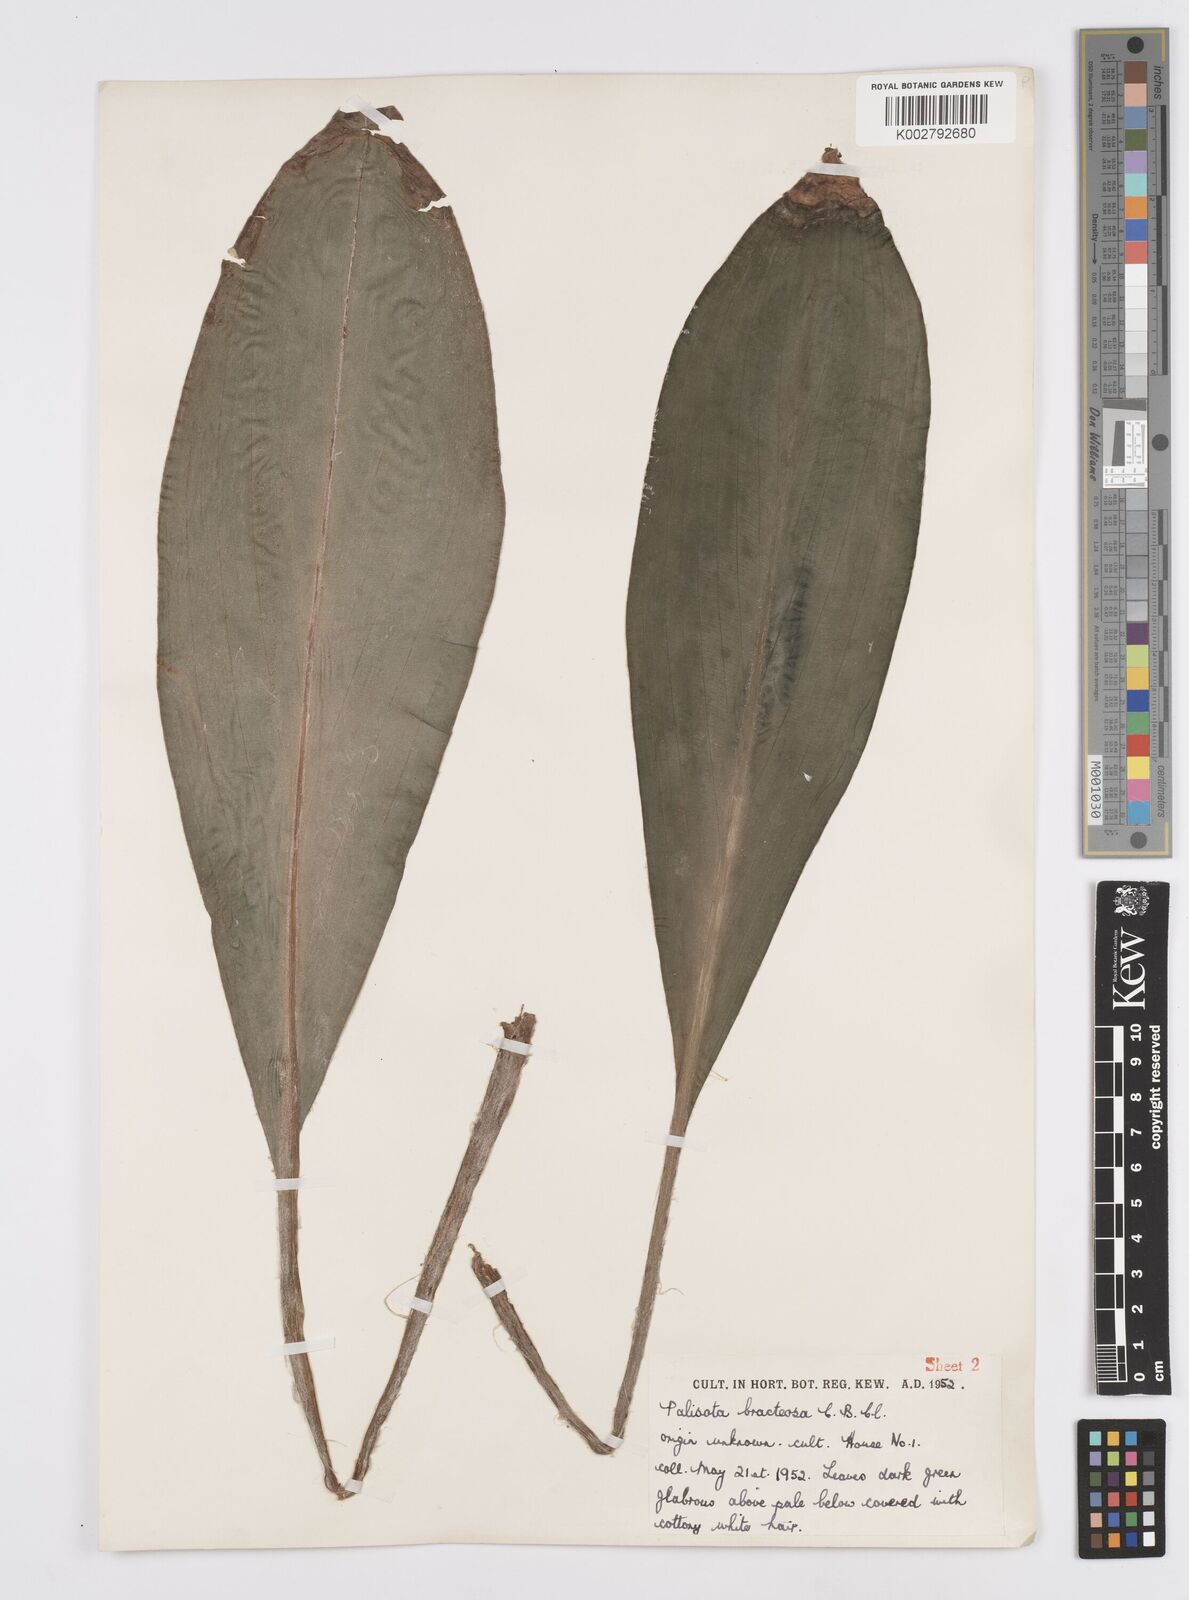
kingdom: Plantae
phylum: Tracheophyta
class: Liliopsida
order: Commelinales
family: Commelinaceae
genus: Palisota
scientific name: Palisota bracteosa
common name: Palisota
